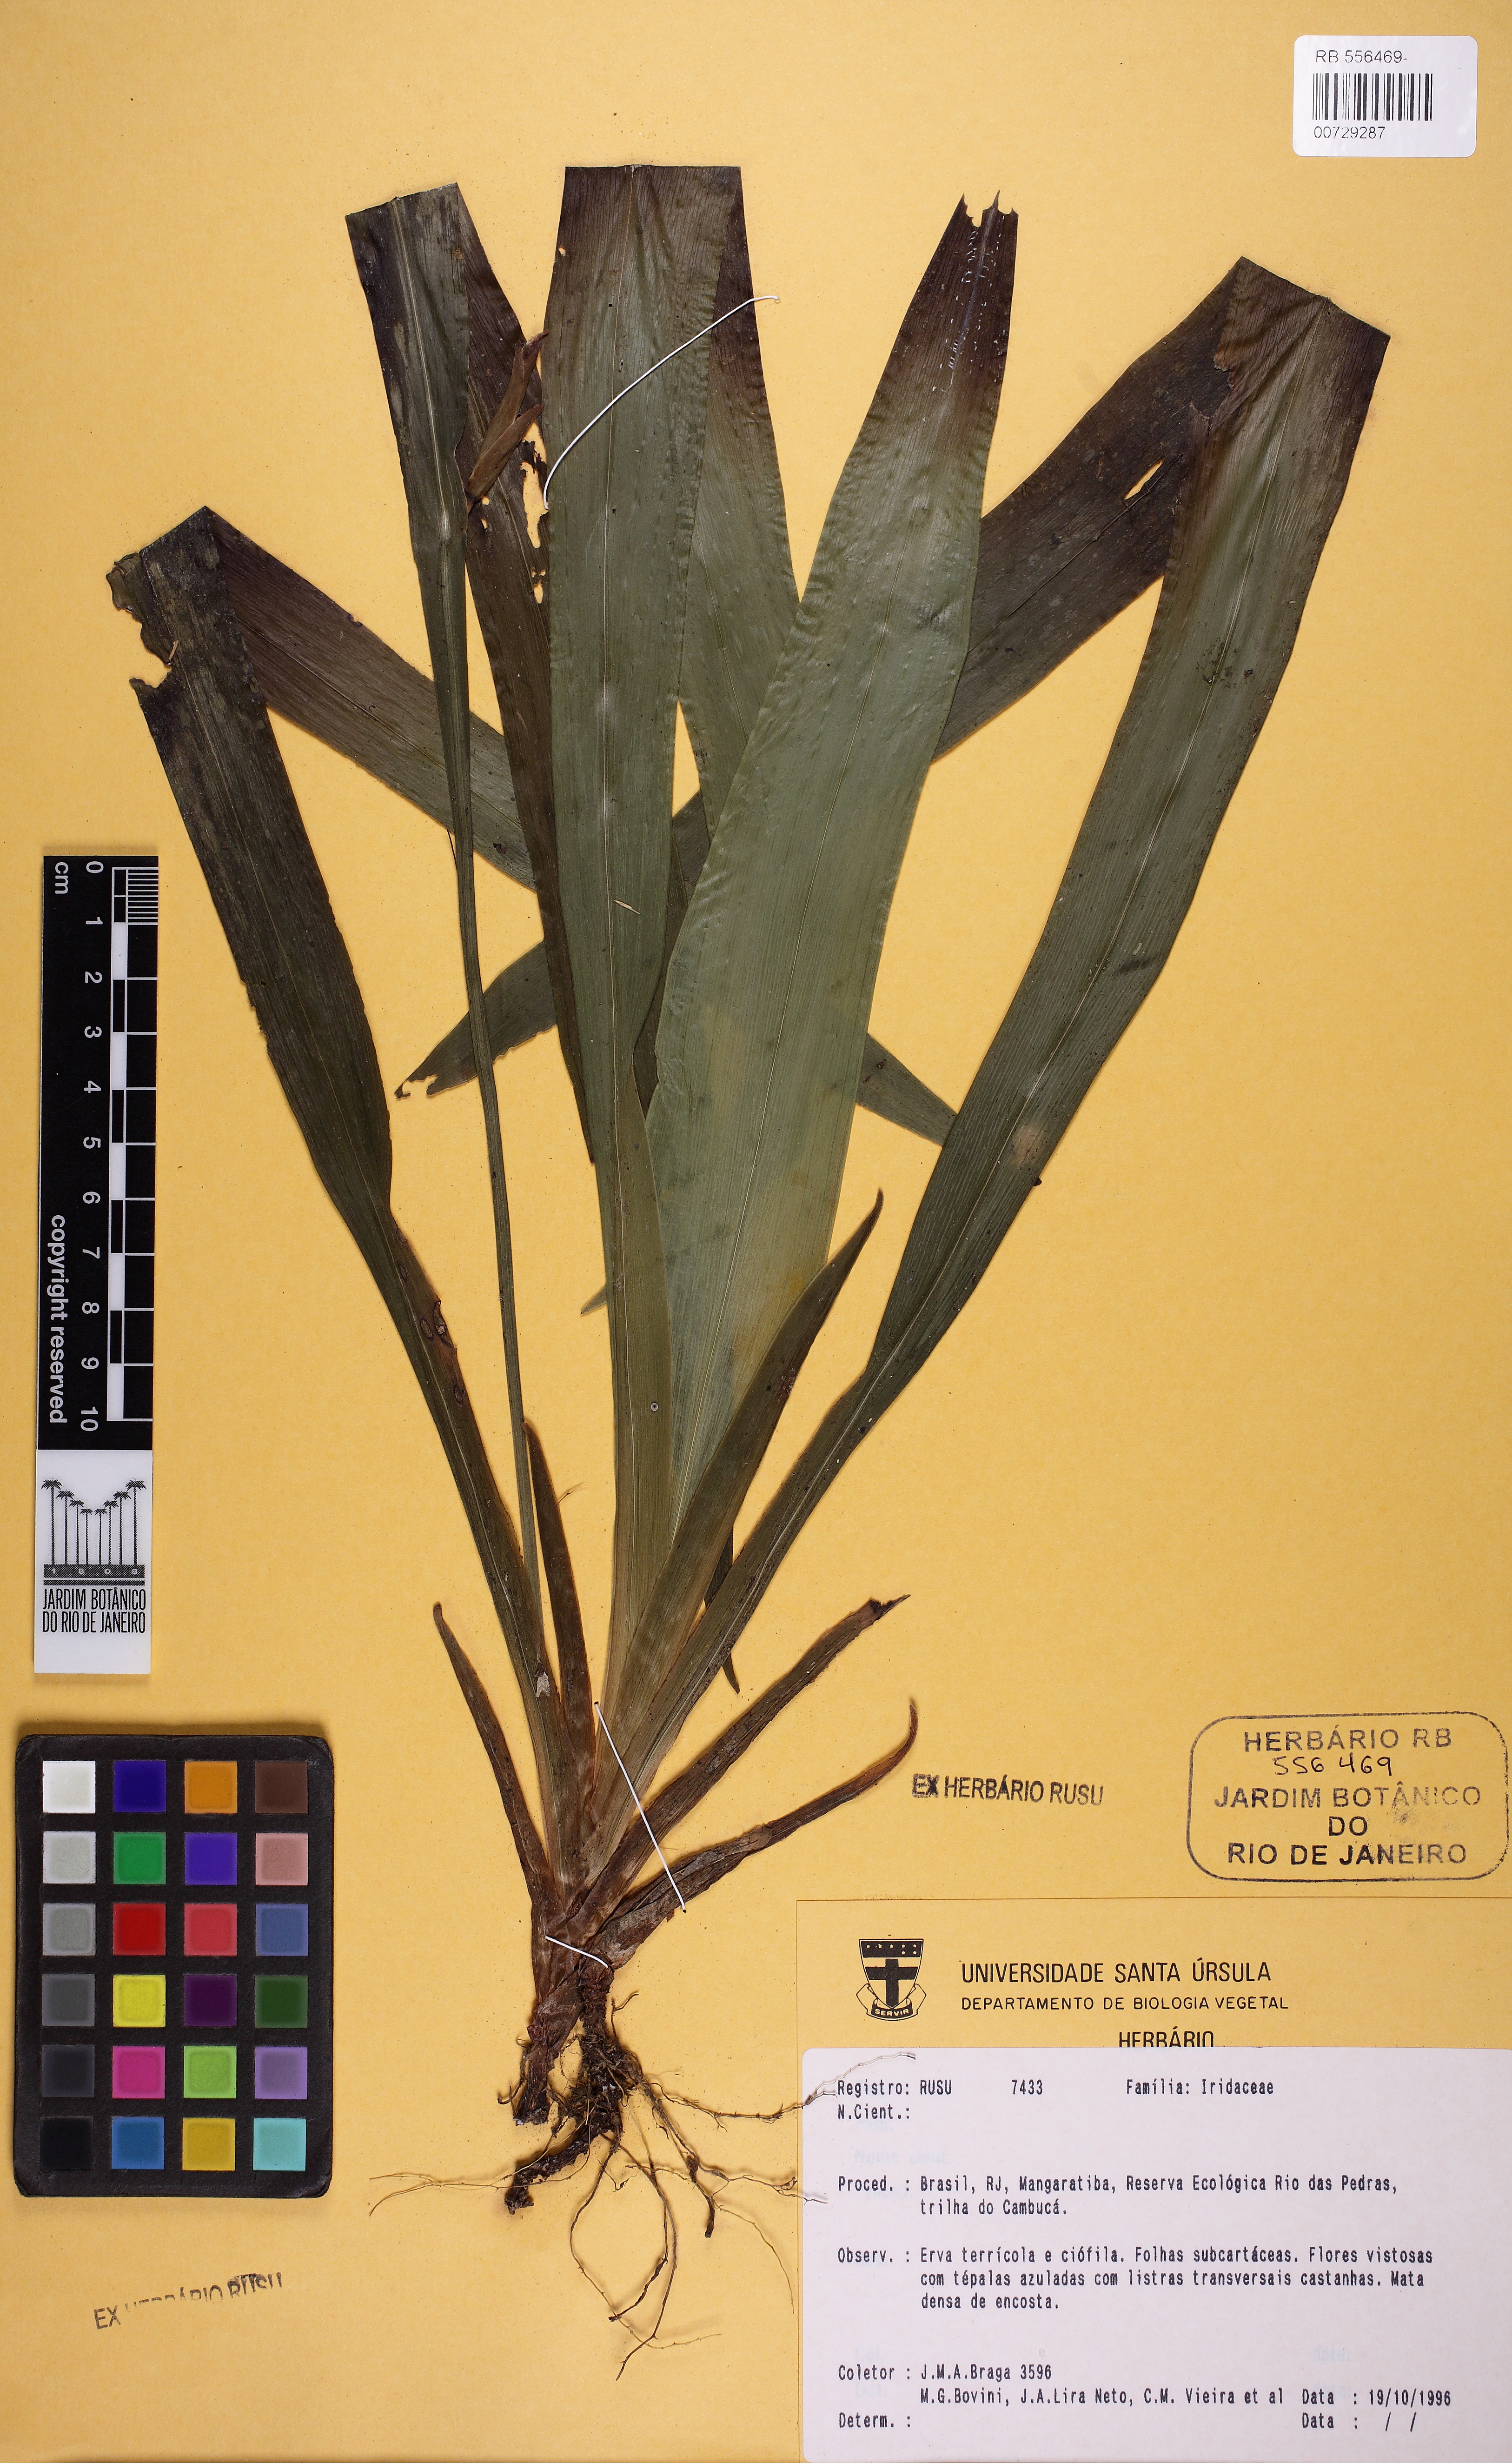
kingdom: Plantae
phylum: Tracheophyta
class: Liliopsida
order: Asparagales
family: Iridaceae
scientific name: Iridaceae
